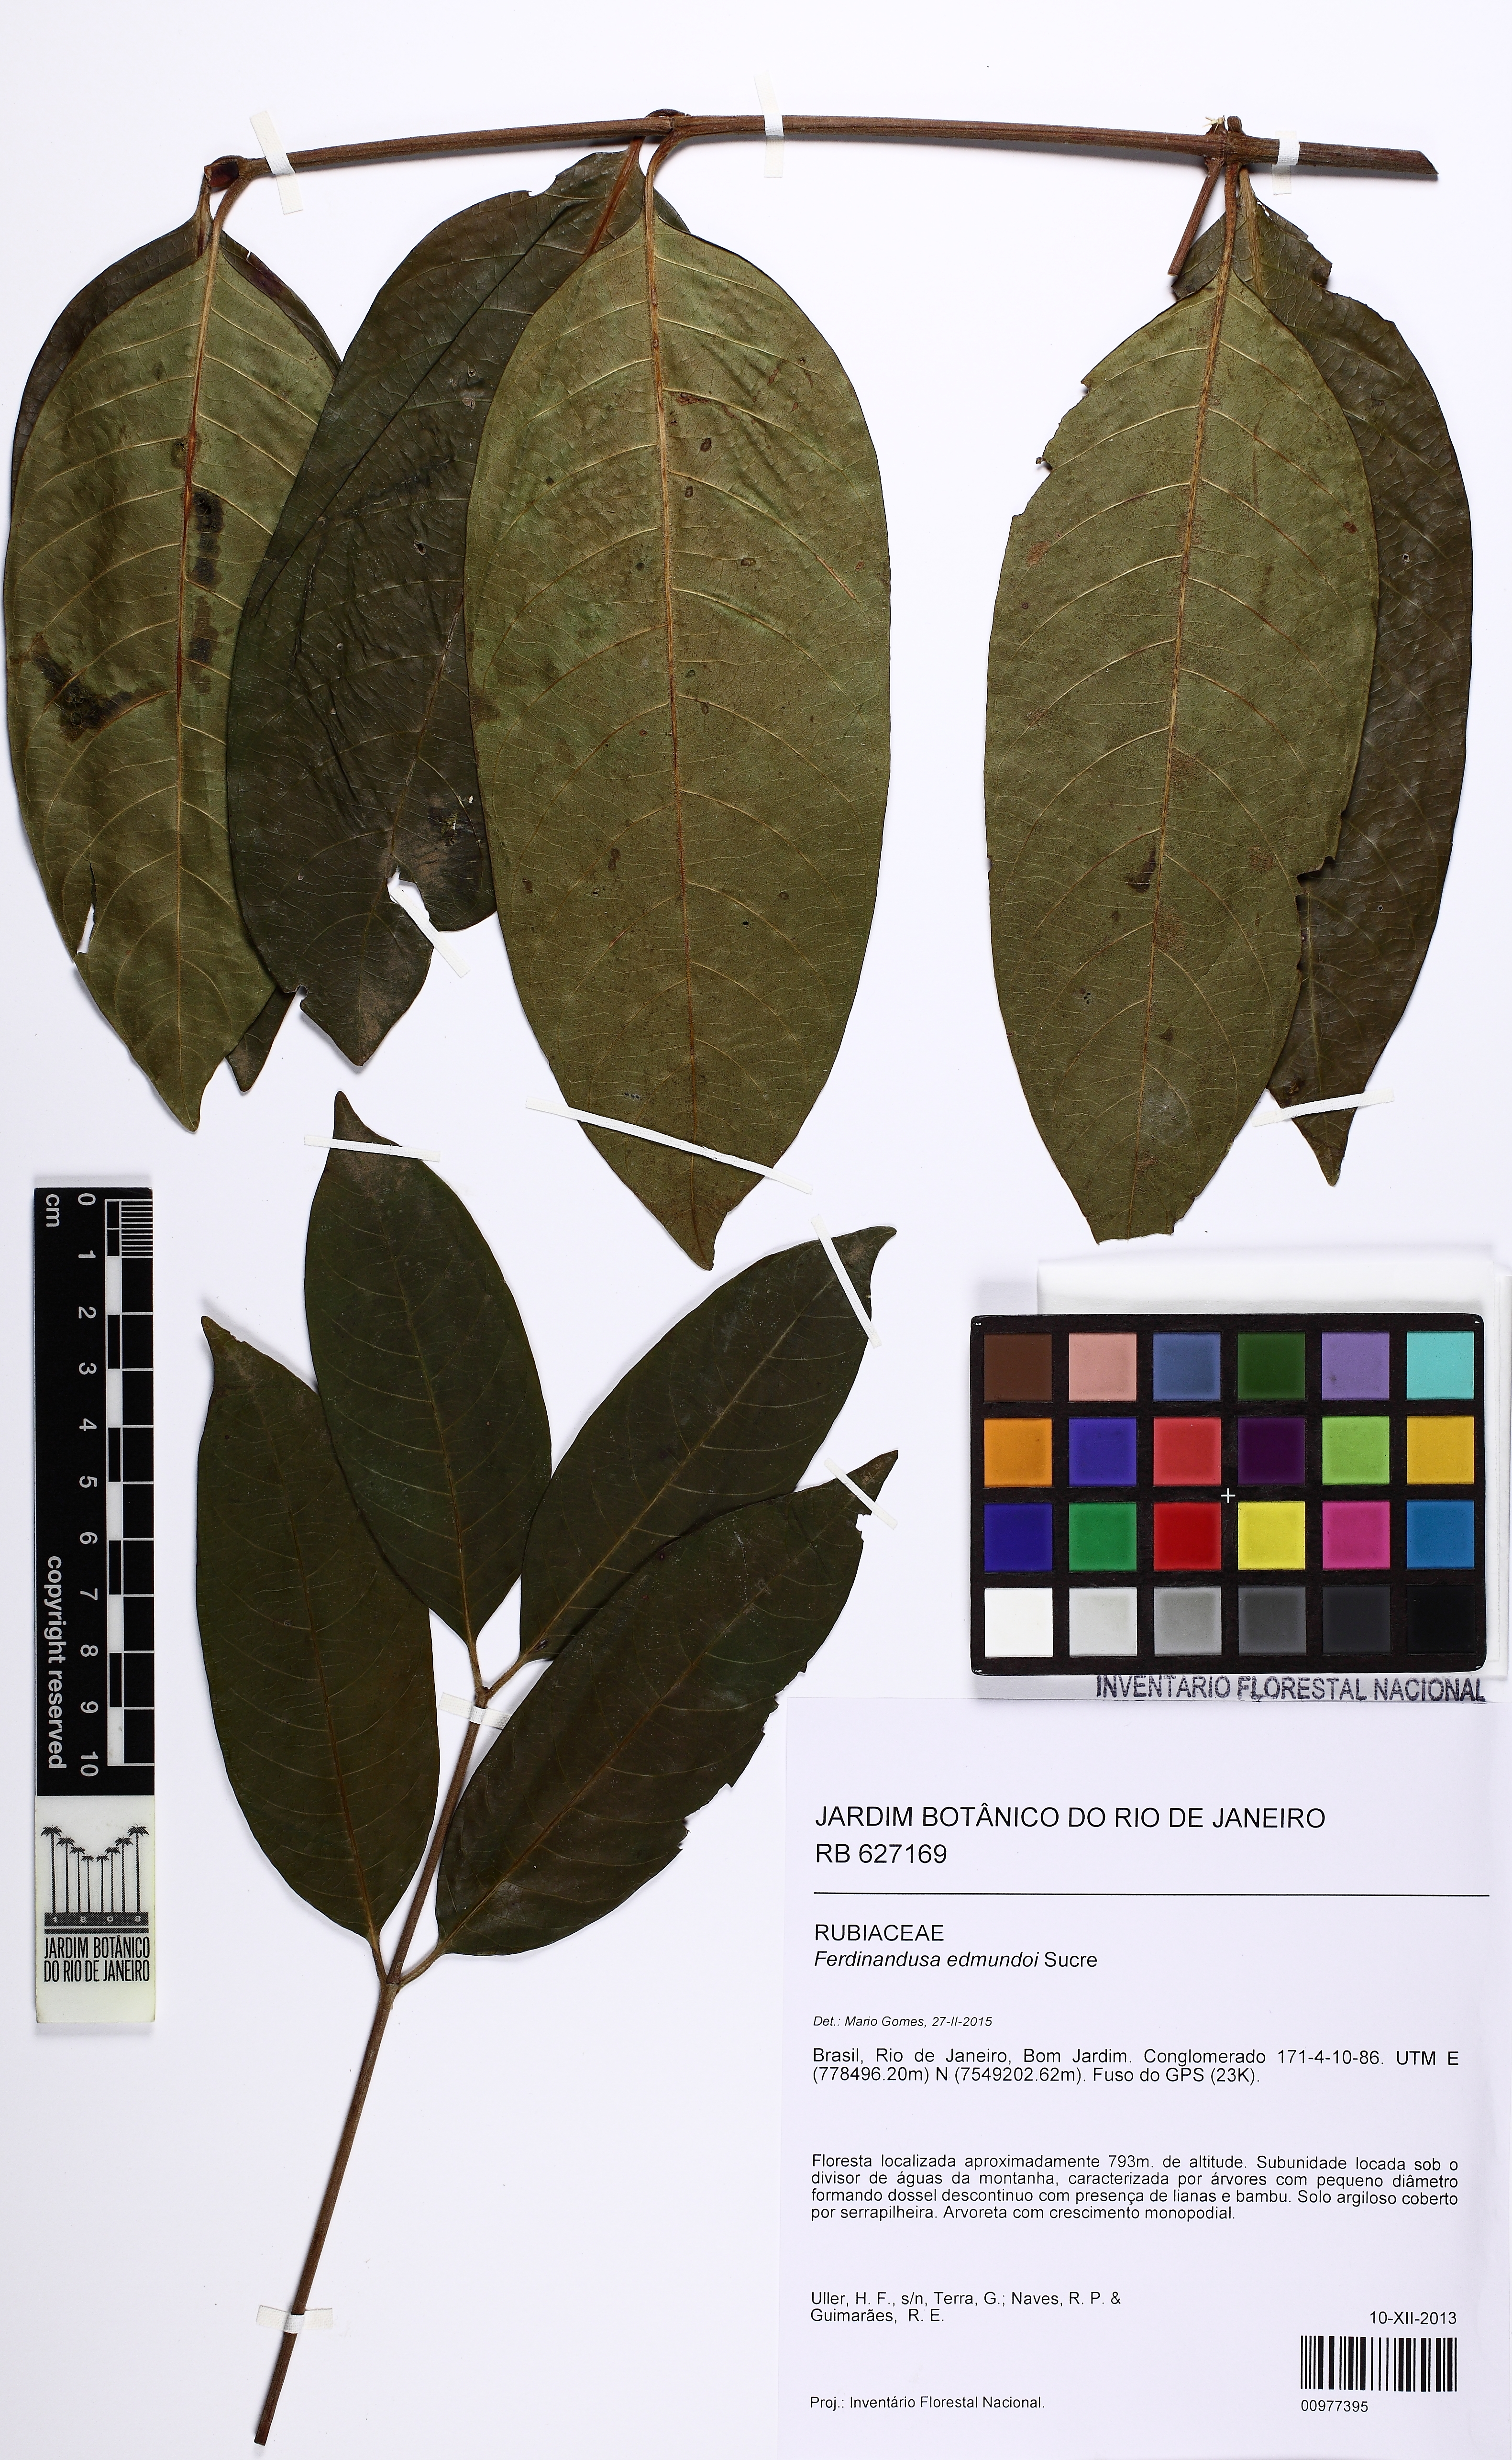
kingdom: Plantae
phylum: Tracheophyta
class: Magnoliopsida
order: Gentianales
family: Rubiaceae
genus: Ferdinandusa
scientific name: Ferdinandusa edmundoi
